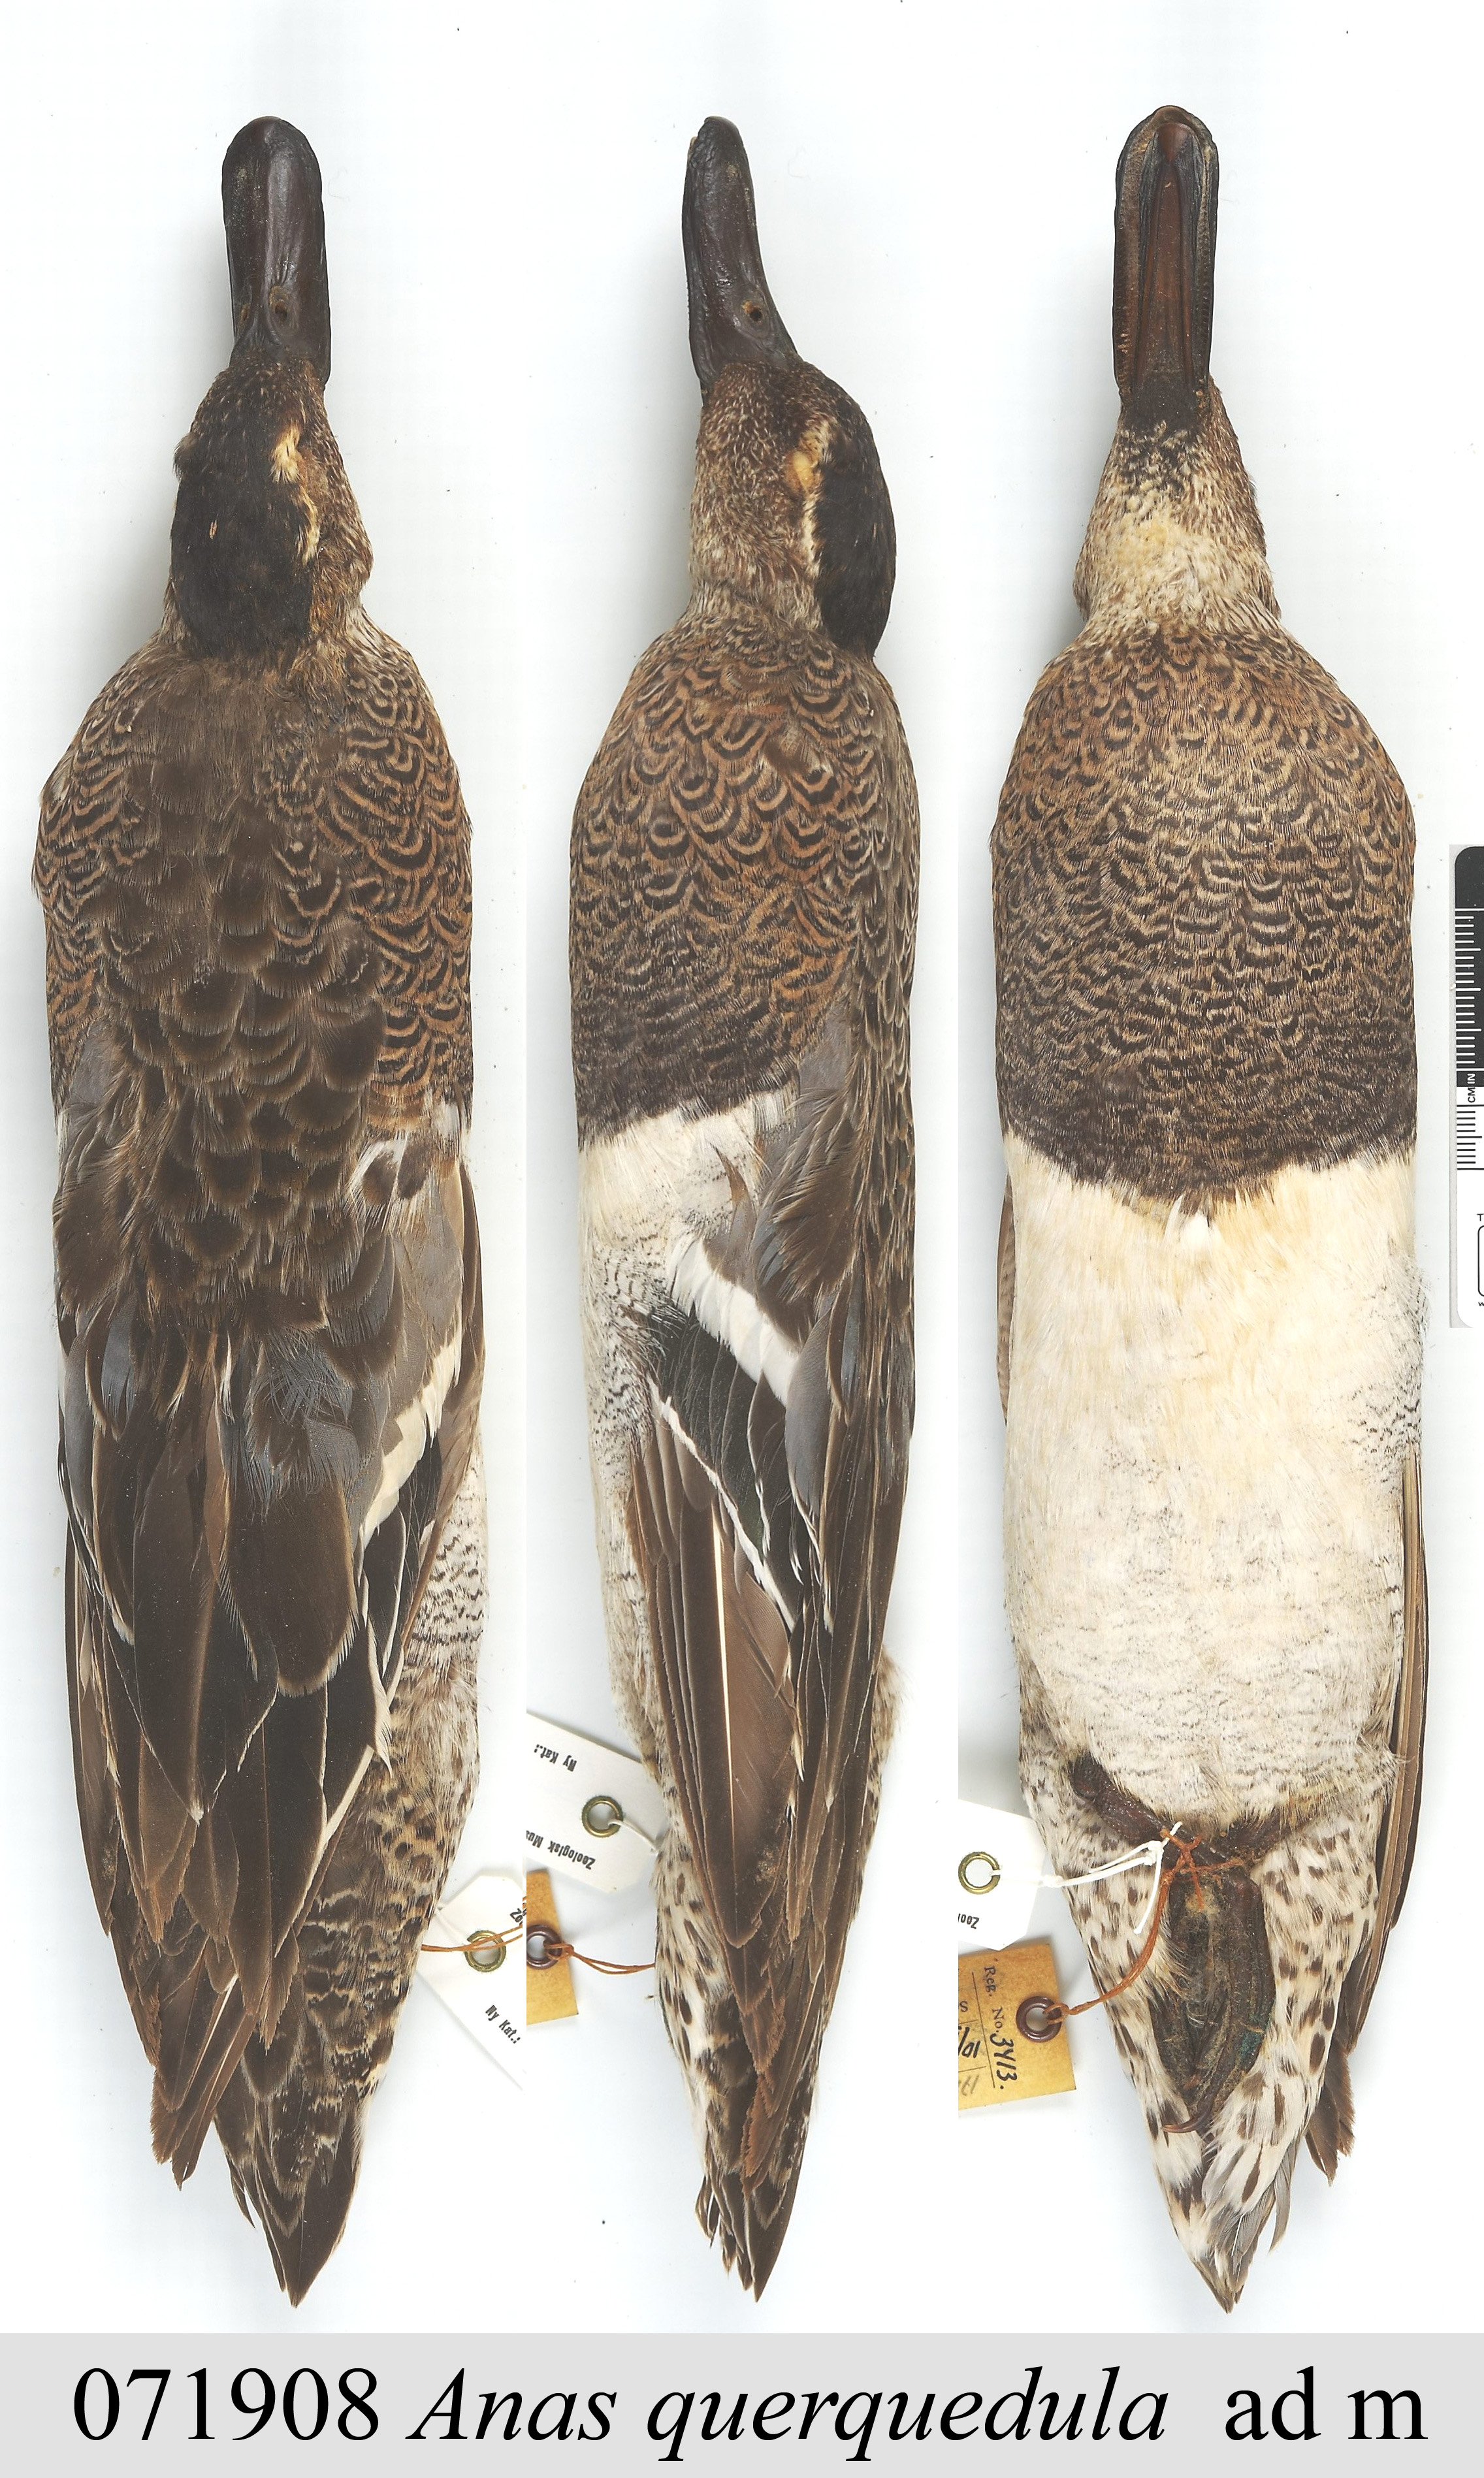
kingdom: Animalia
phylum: Chordata
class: Aves
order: Anseriformes
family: Anatidae
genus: Spatula
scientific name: Spatula querquedula
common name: Garganey
